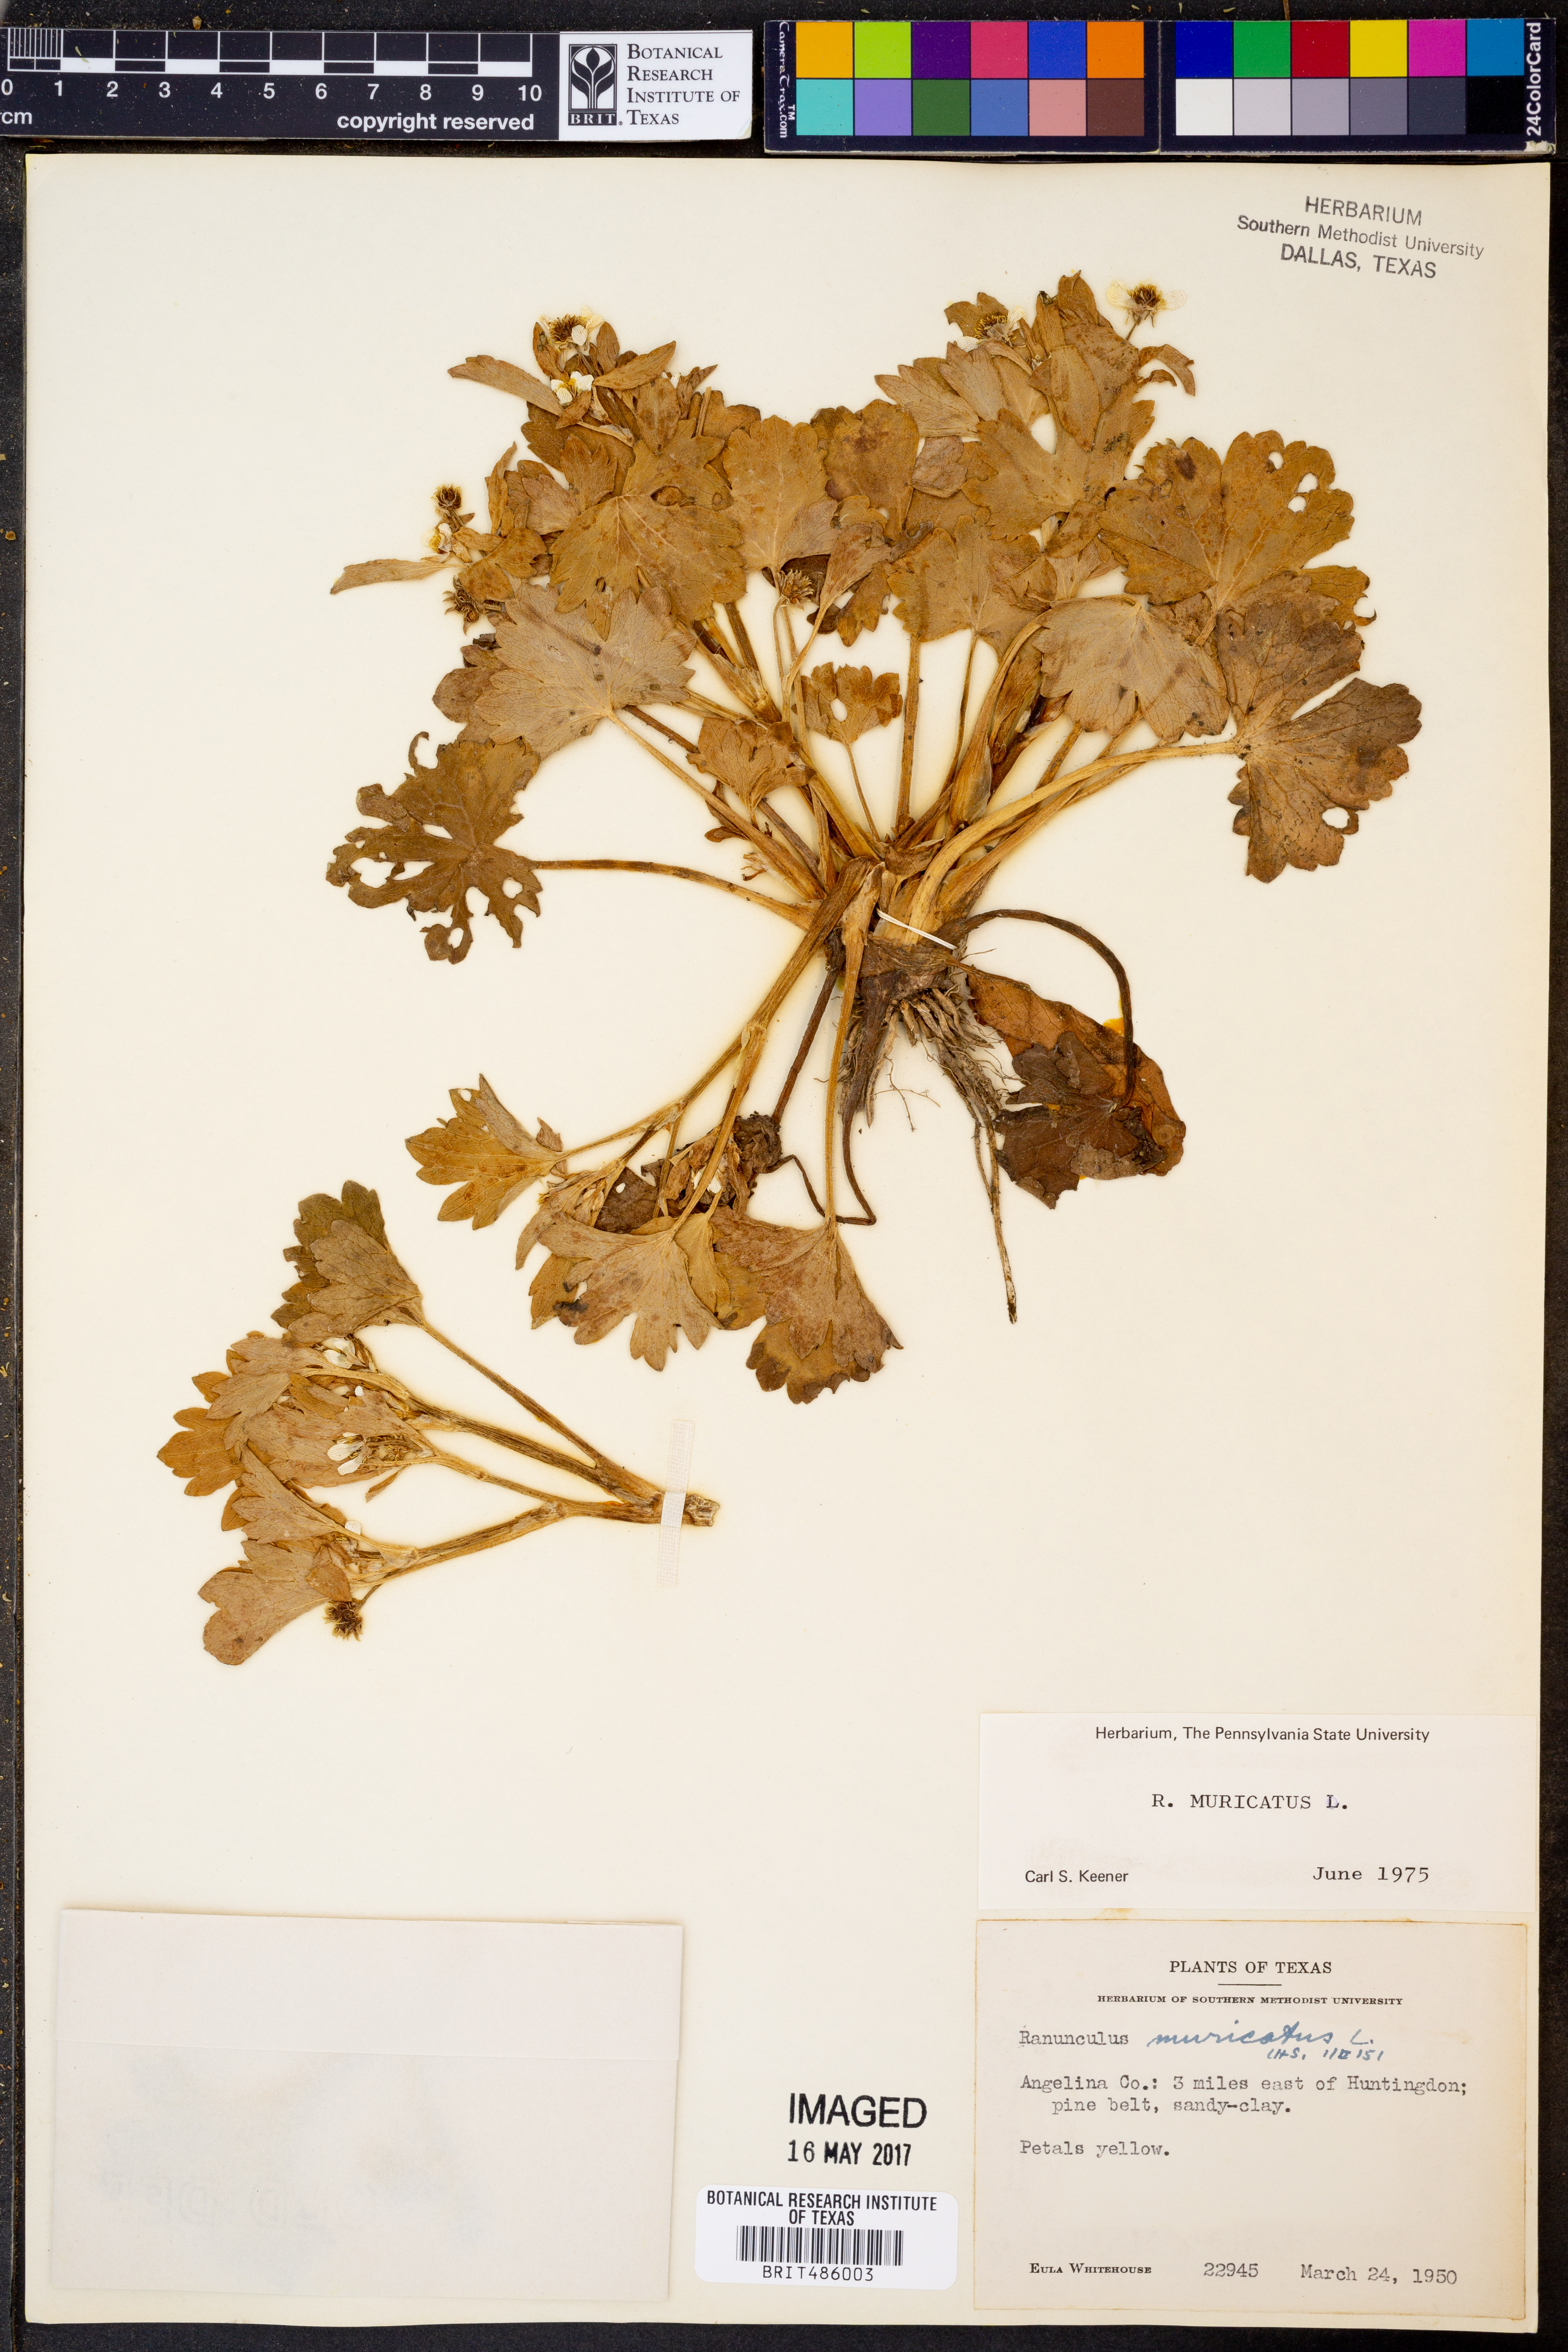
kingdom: Plantae
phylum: Tracheophyta
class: Magnoliopsida
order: Ranunculales
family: Ranunculaceae
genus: Ranunculus
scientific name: Ranunculus muricatus
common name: Rough-fruited buttercup
